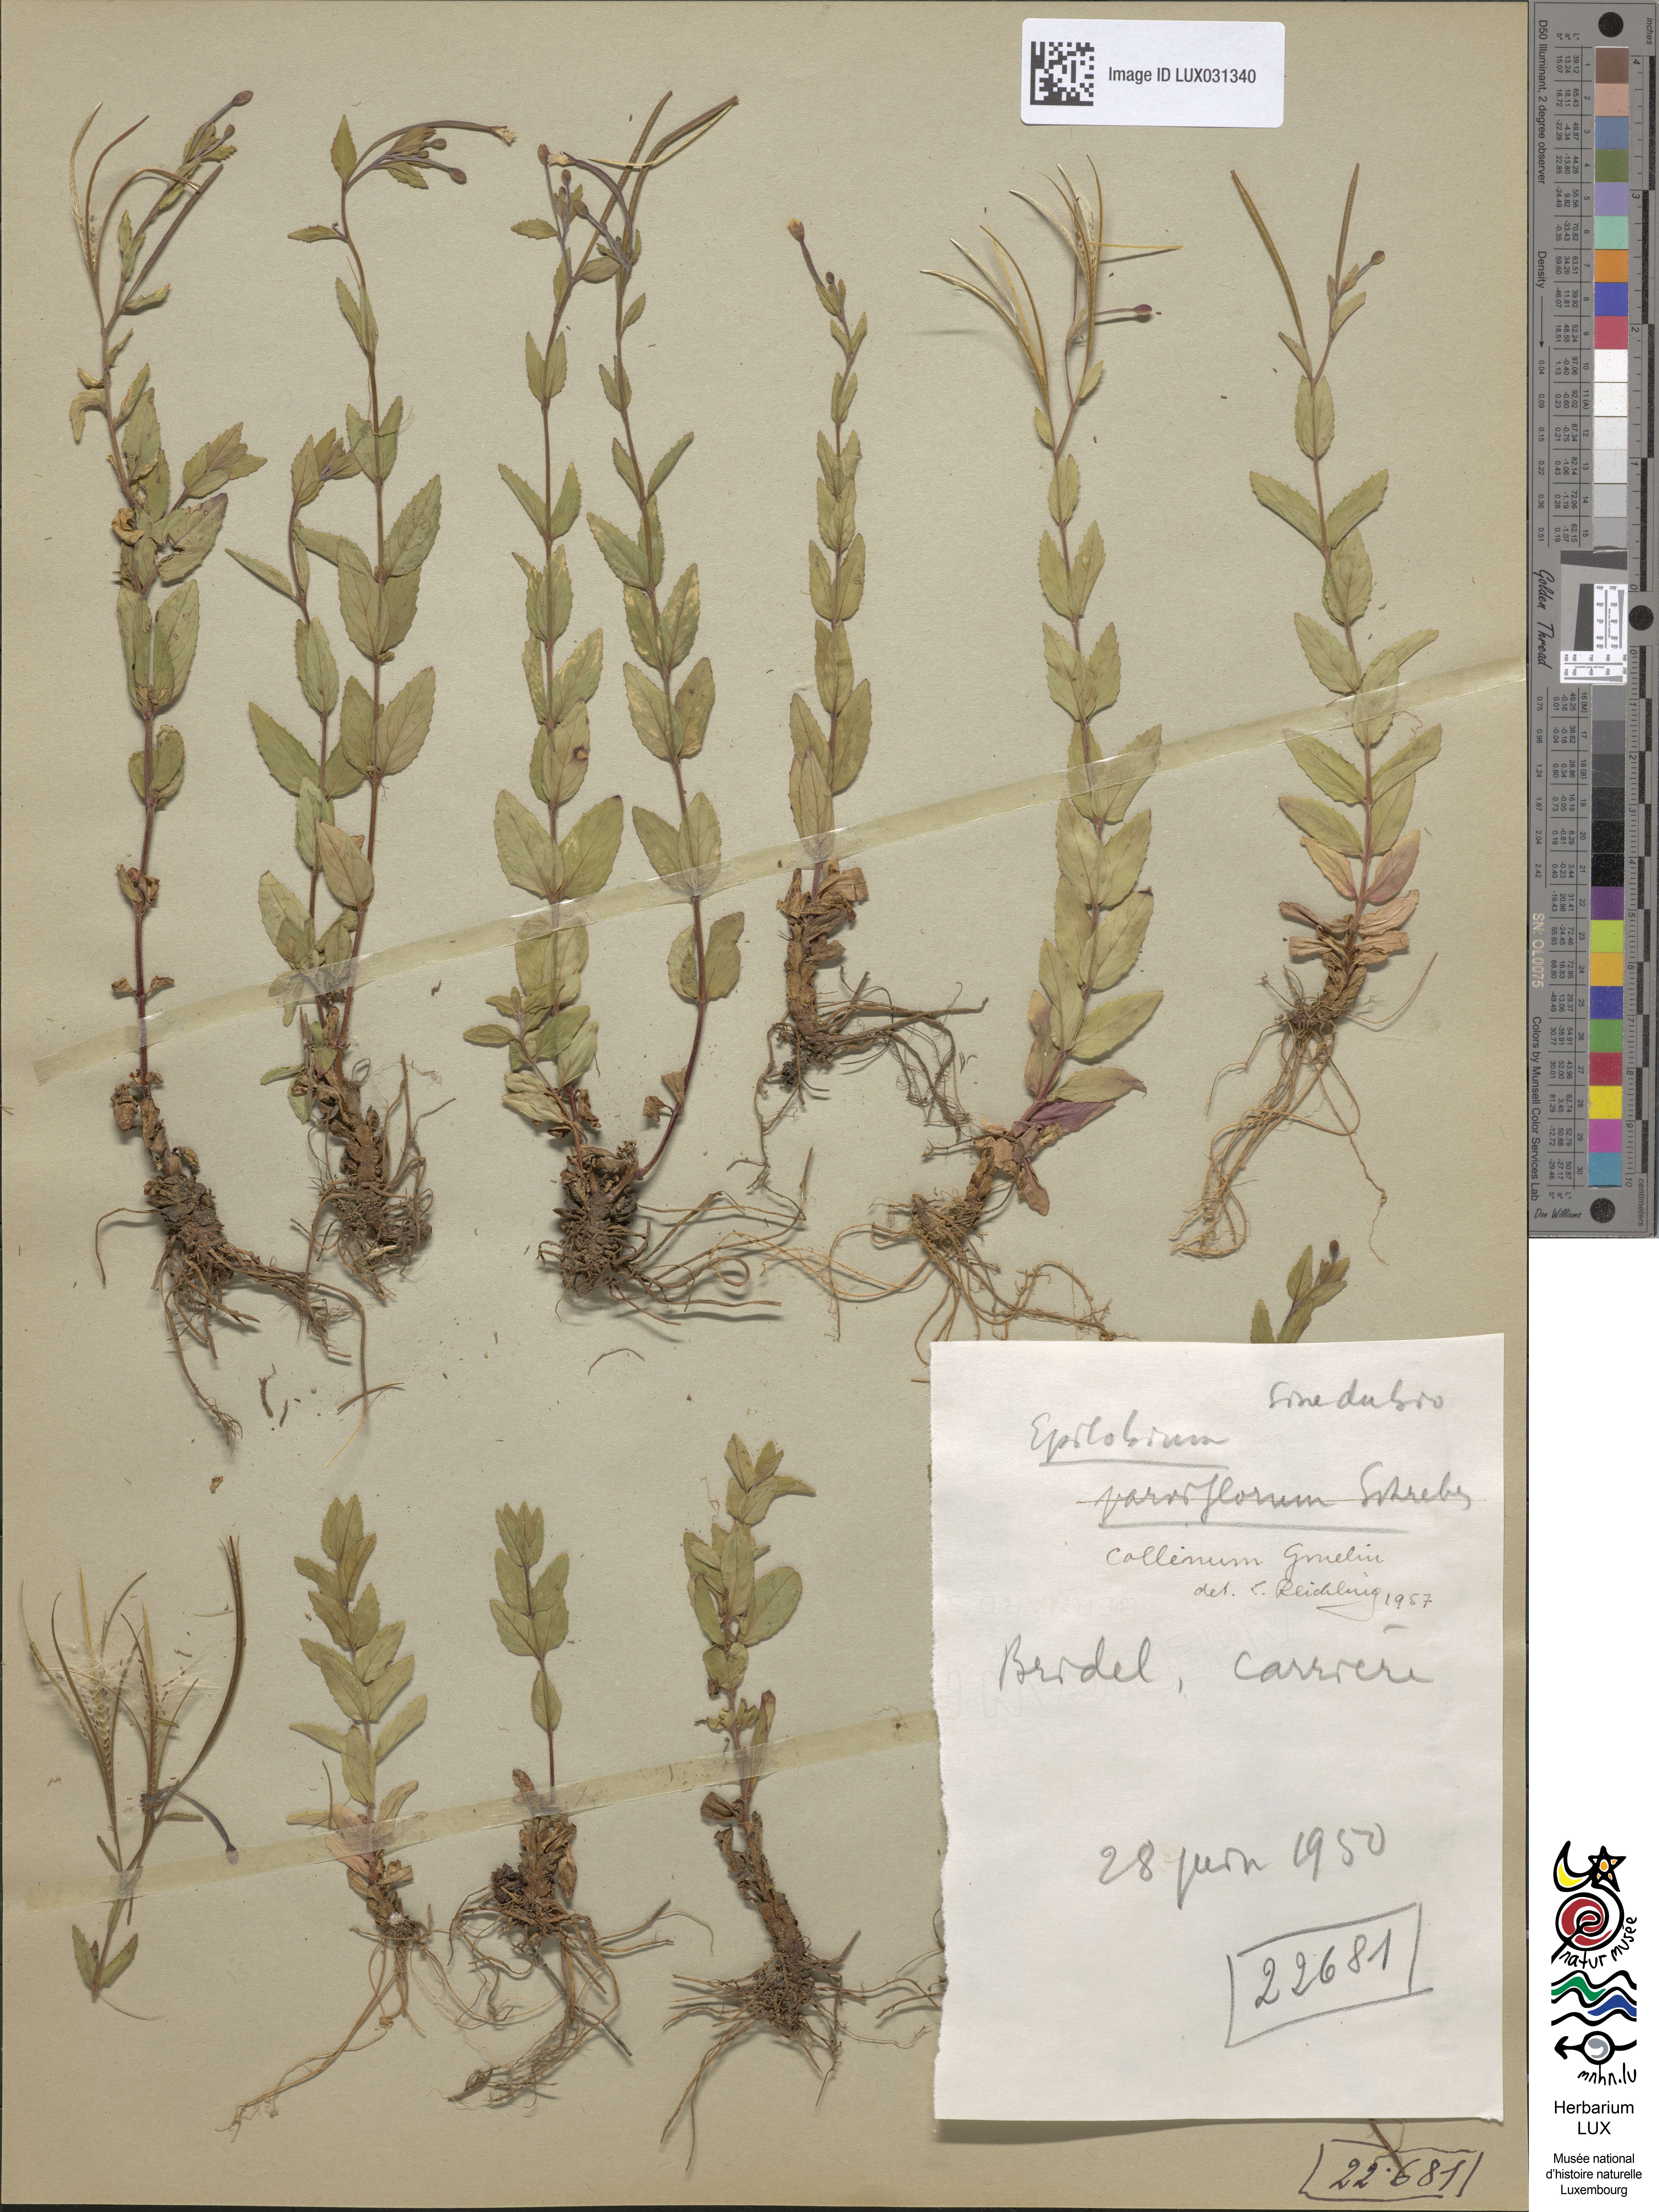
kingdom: Plantae
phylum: Tracheophyta
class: Magnoliopsida
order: Myrtales
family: Onagraceae
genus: Epilobium
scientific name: Epilobium collinum
